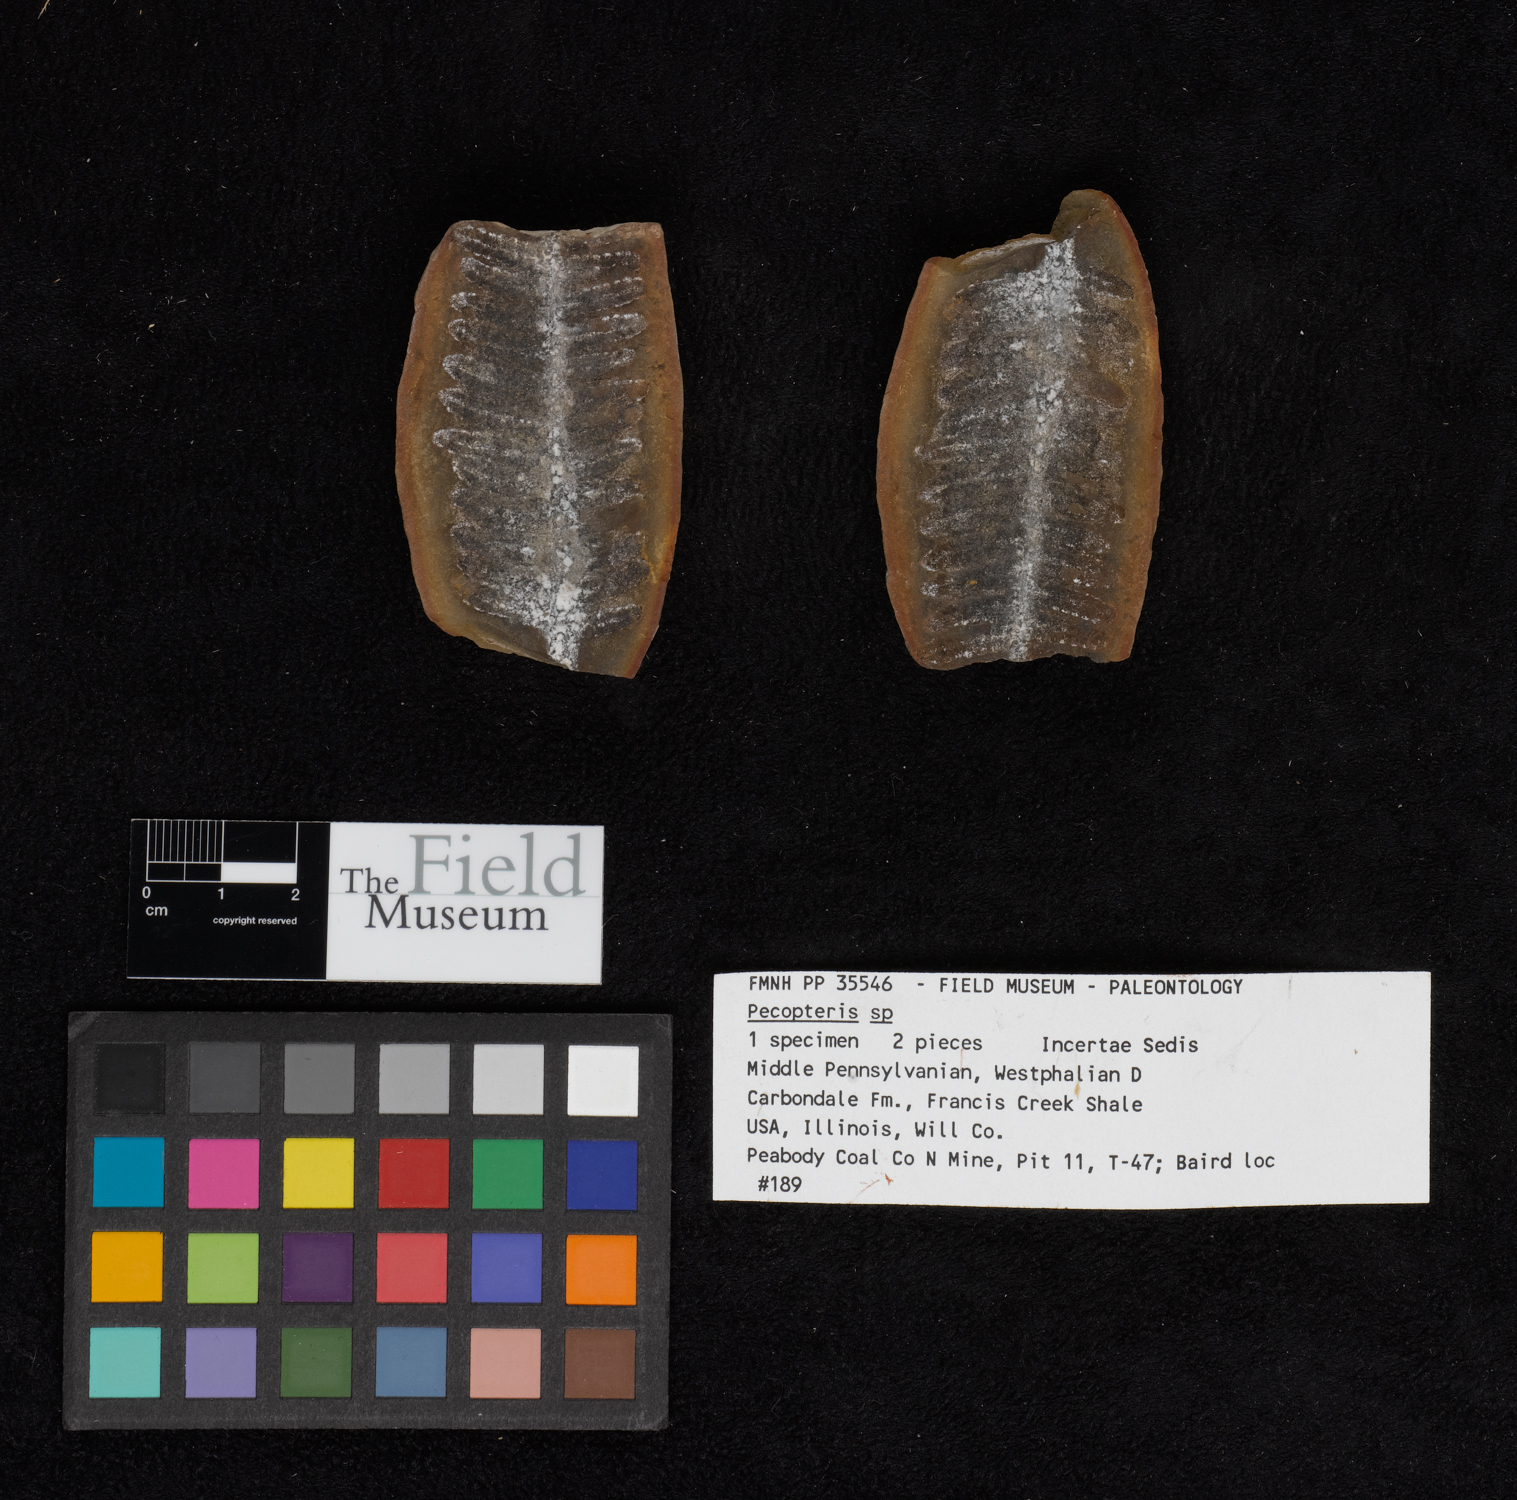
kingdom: Plantae
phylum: Tracheophyta
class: Polypodiopsida
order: Marattiales
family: Asterothecaceae
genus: Pecopteris
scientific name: Pecopteris
